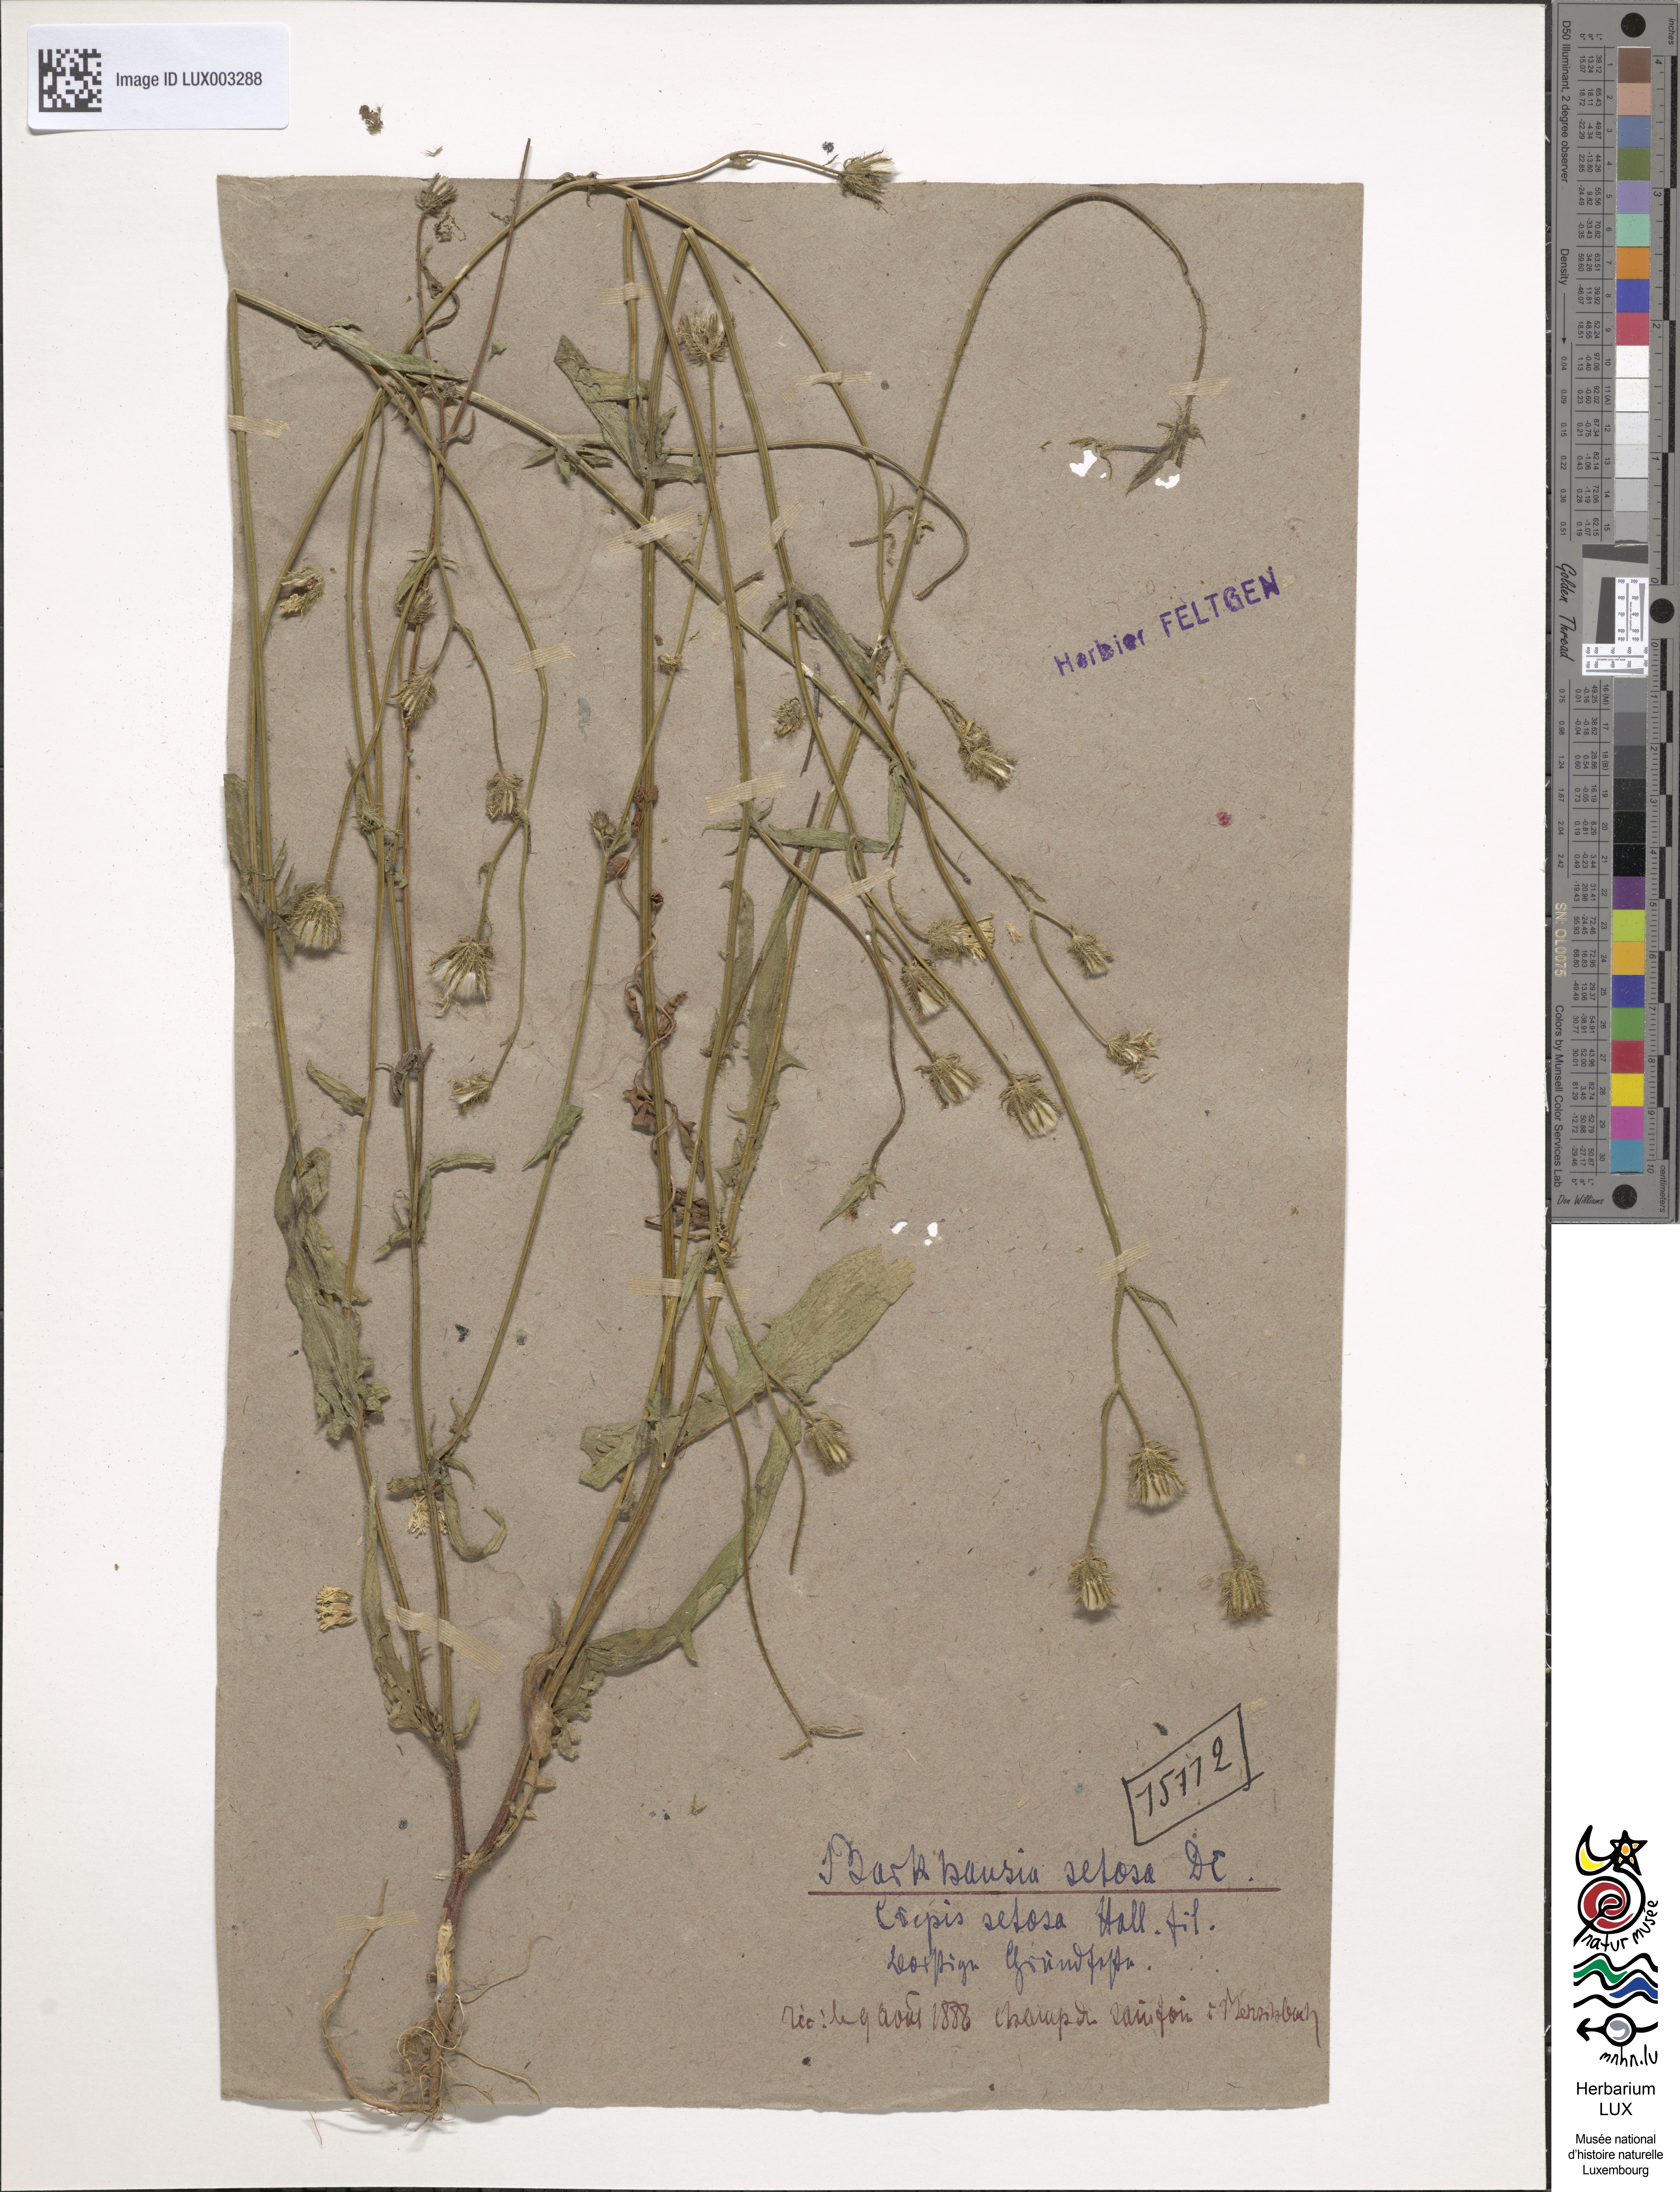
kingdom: Plantae
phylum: Tracheophyta
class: Magnoliopsida
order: Asterales
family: Asteraceae
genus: Crepis
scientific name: Crepis setosa
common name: Bristly hawk's-beard
